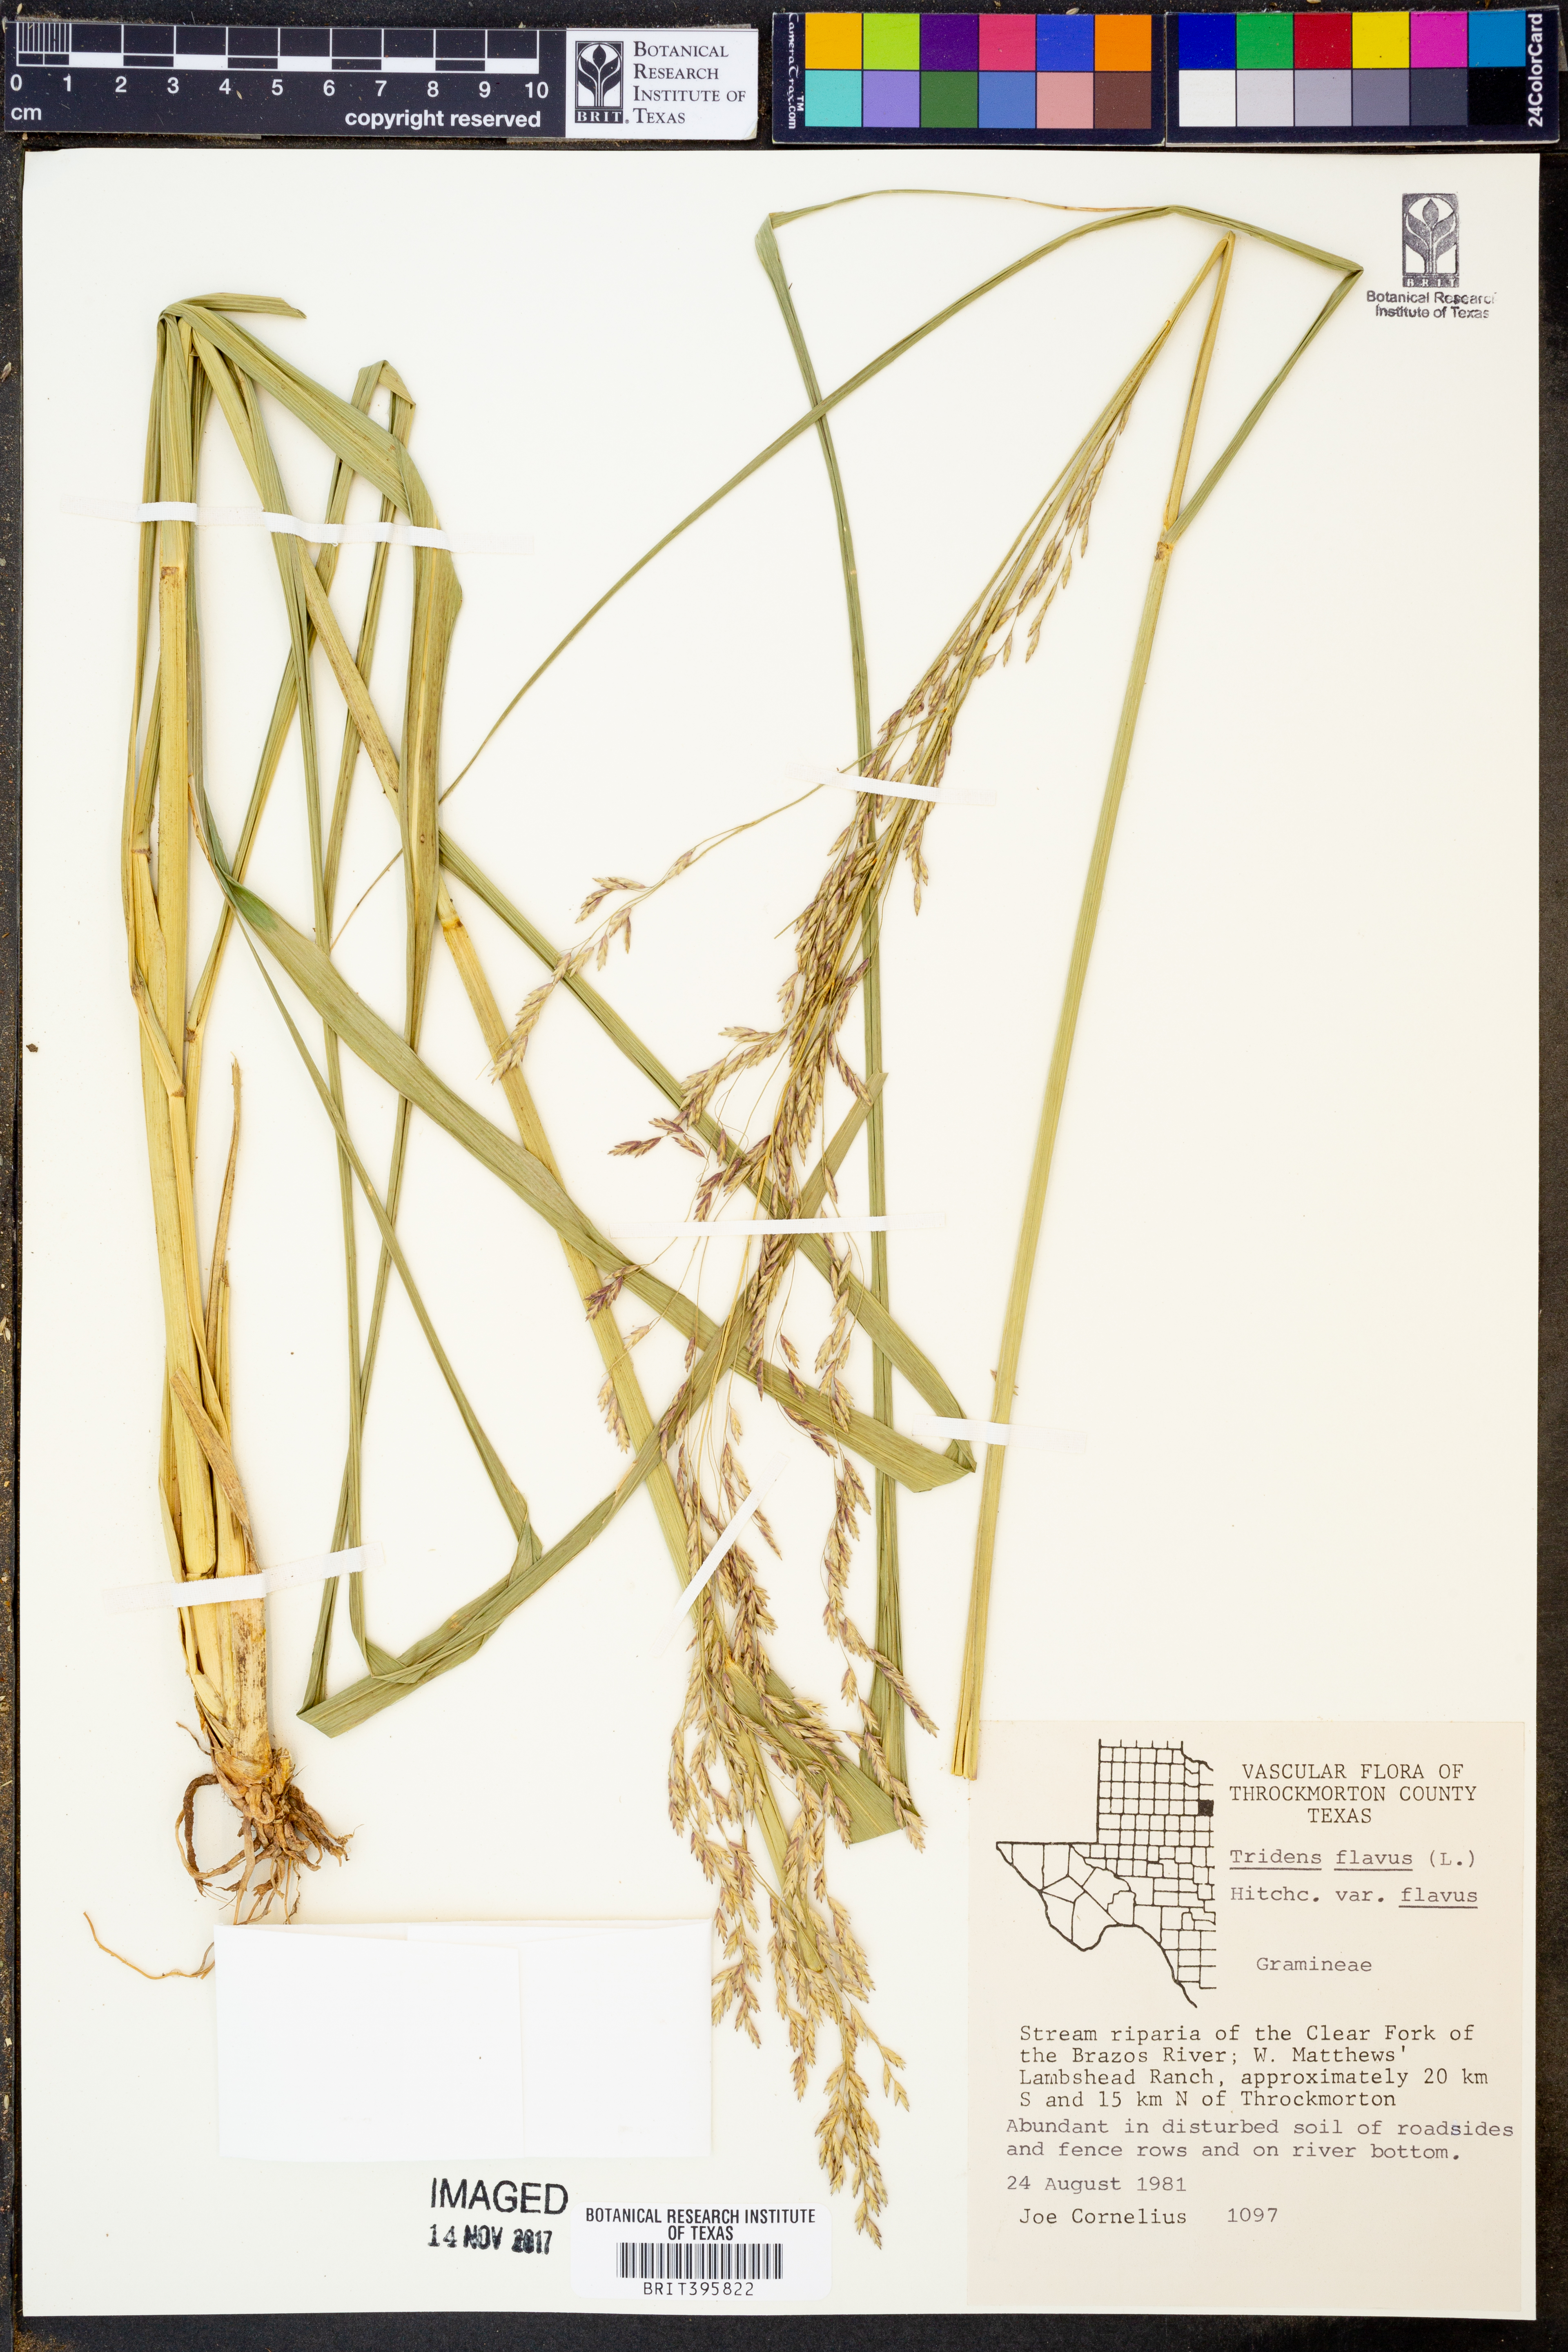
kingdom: Plantae
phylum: Tracheophyta
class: Liliopsida
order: Poales
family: Poaceae
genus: Tridens
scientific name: Tridens flavus
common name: Purpletop
